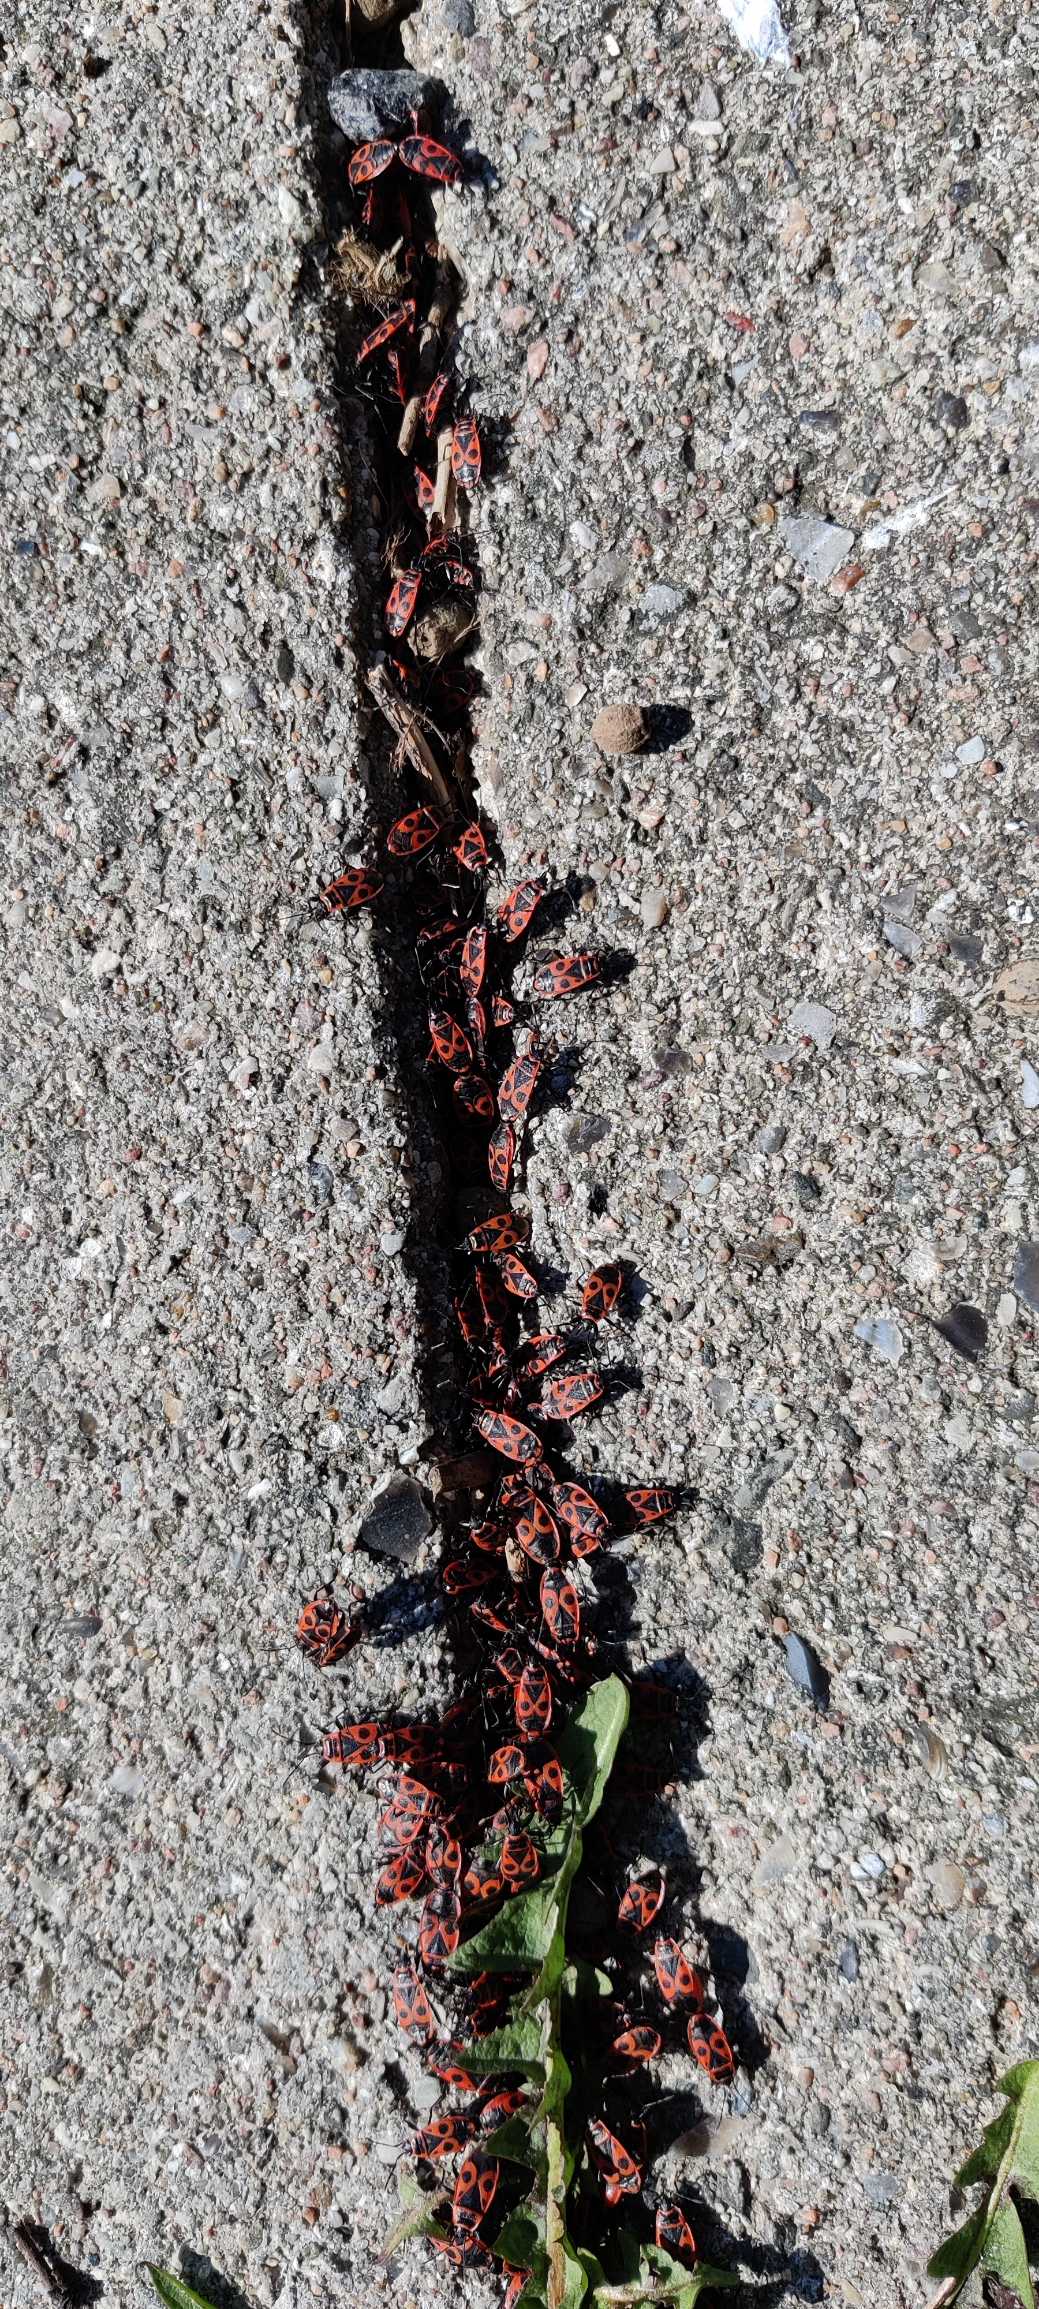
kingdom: Animalia
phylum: Arthropoda
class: Insecta
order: Hemiptera
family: Pyrrhocoridae
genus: Pyrrhocoris
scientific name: Pyrrhocoris apterus
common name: Ildtæge
